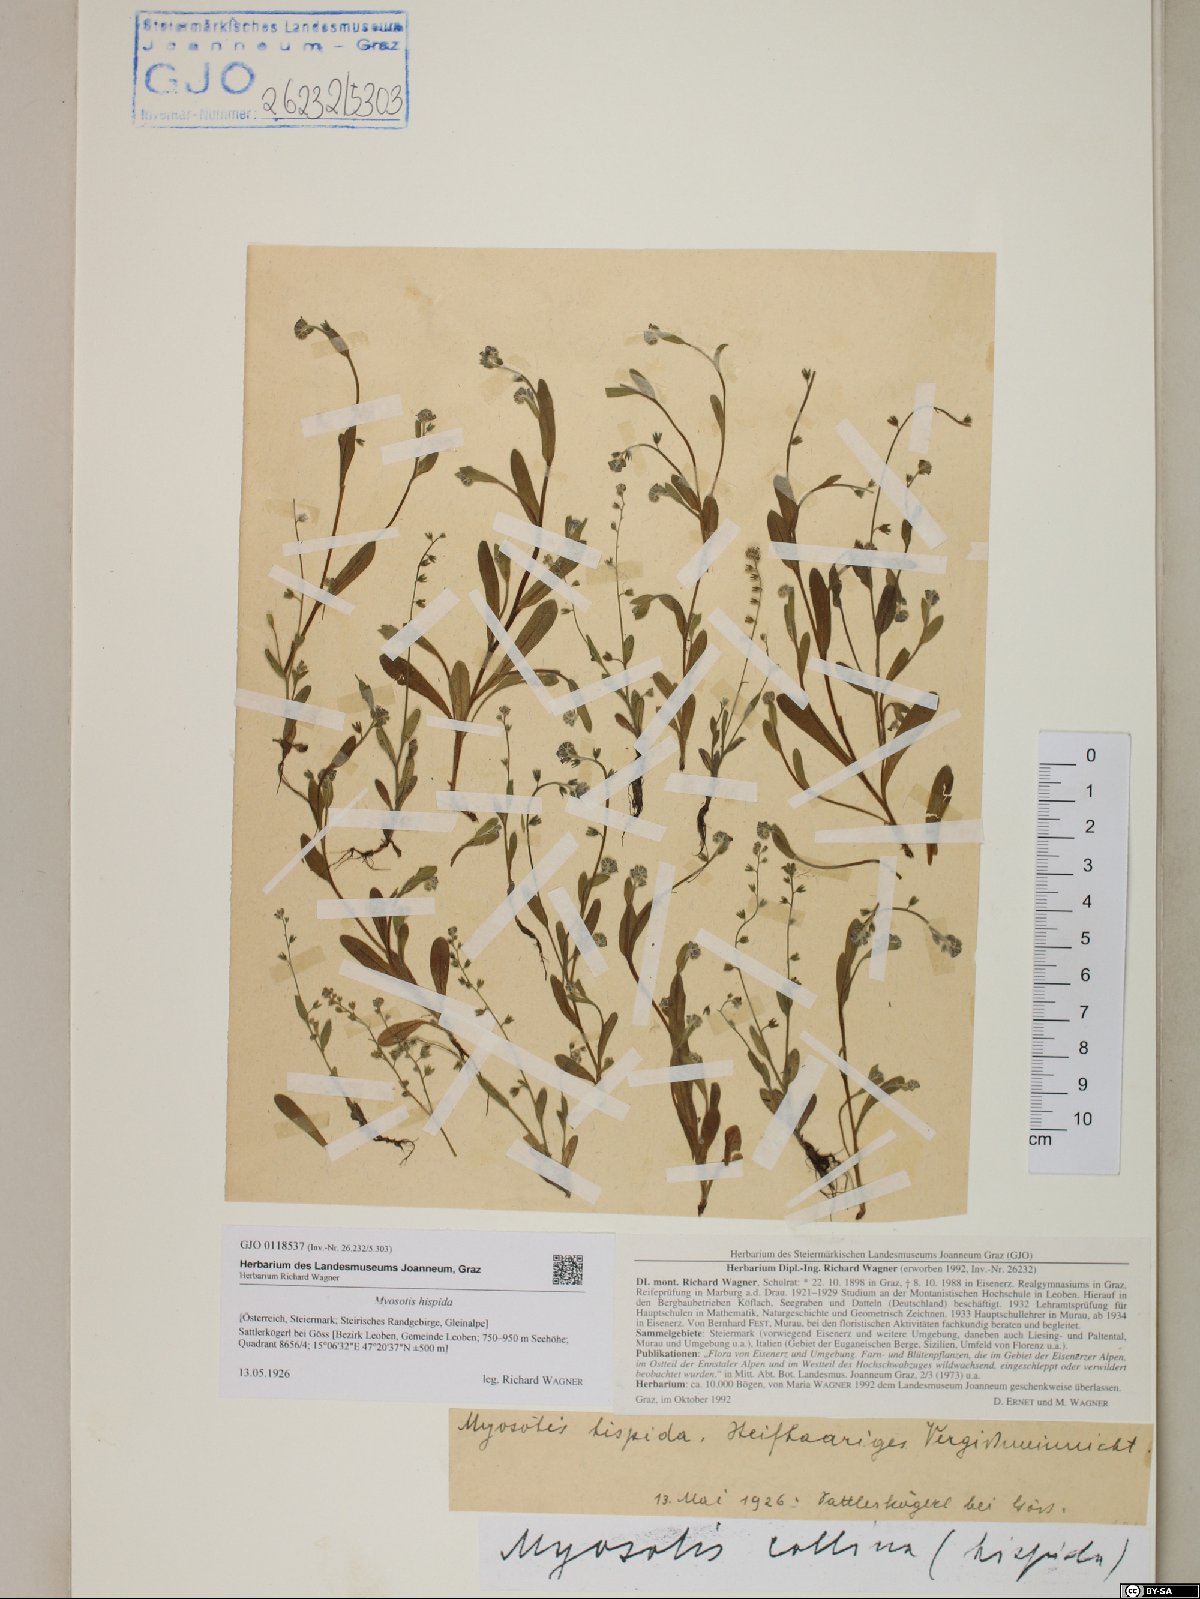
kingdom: Plantae
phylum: Tracheophyta
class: Magnoliopsida
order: Boraginales
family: Boraginaceae
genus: Myosotis
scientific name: Myosotis ramosissima
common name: Early forget-me-not
